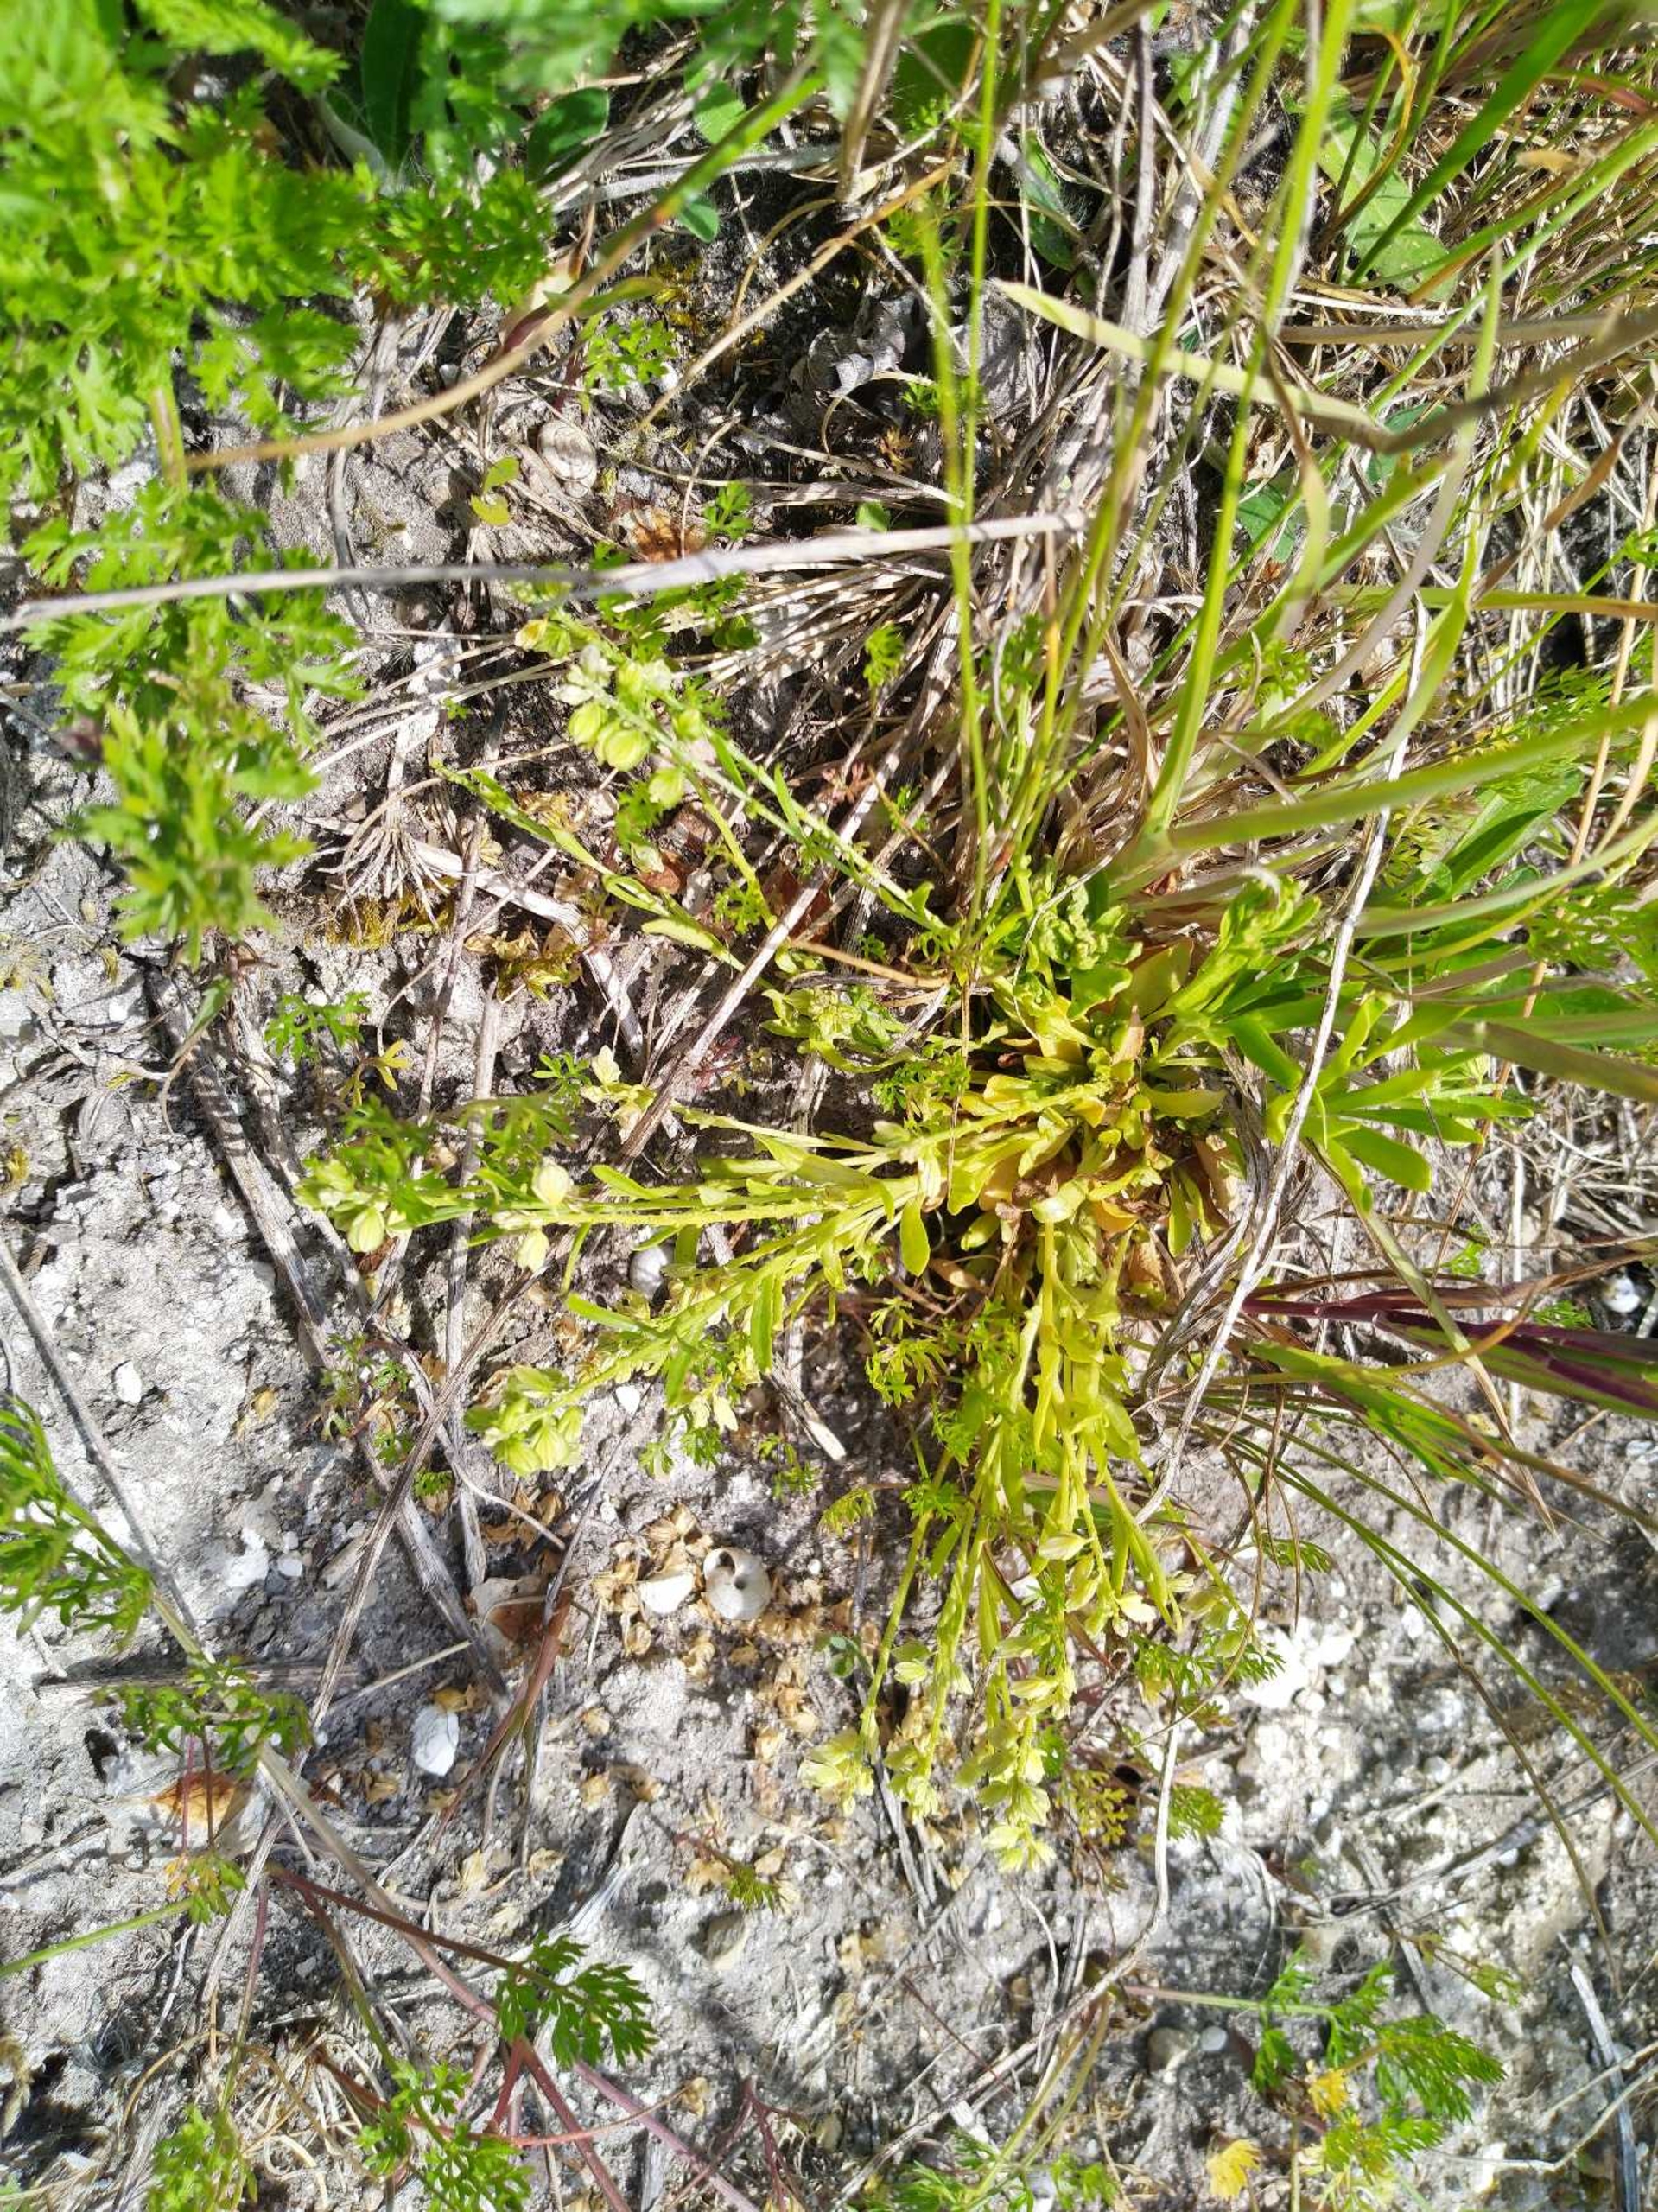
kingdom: Plantae
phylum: Tracheophyta
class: Magnoliopsida
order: Fabales
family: Polygalaceae
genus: Polygala
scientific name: Polygala amarella
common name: Bitter mælkeurt
